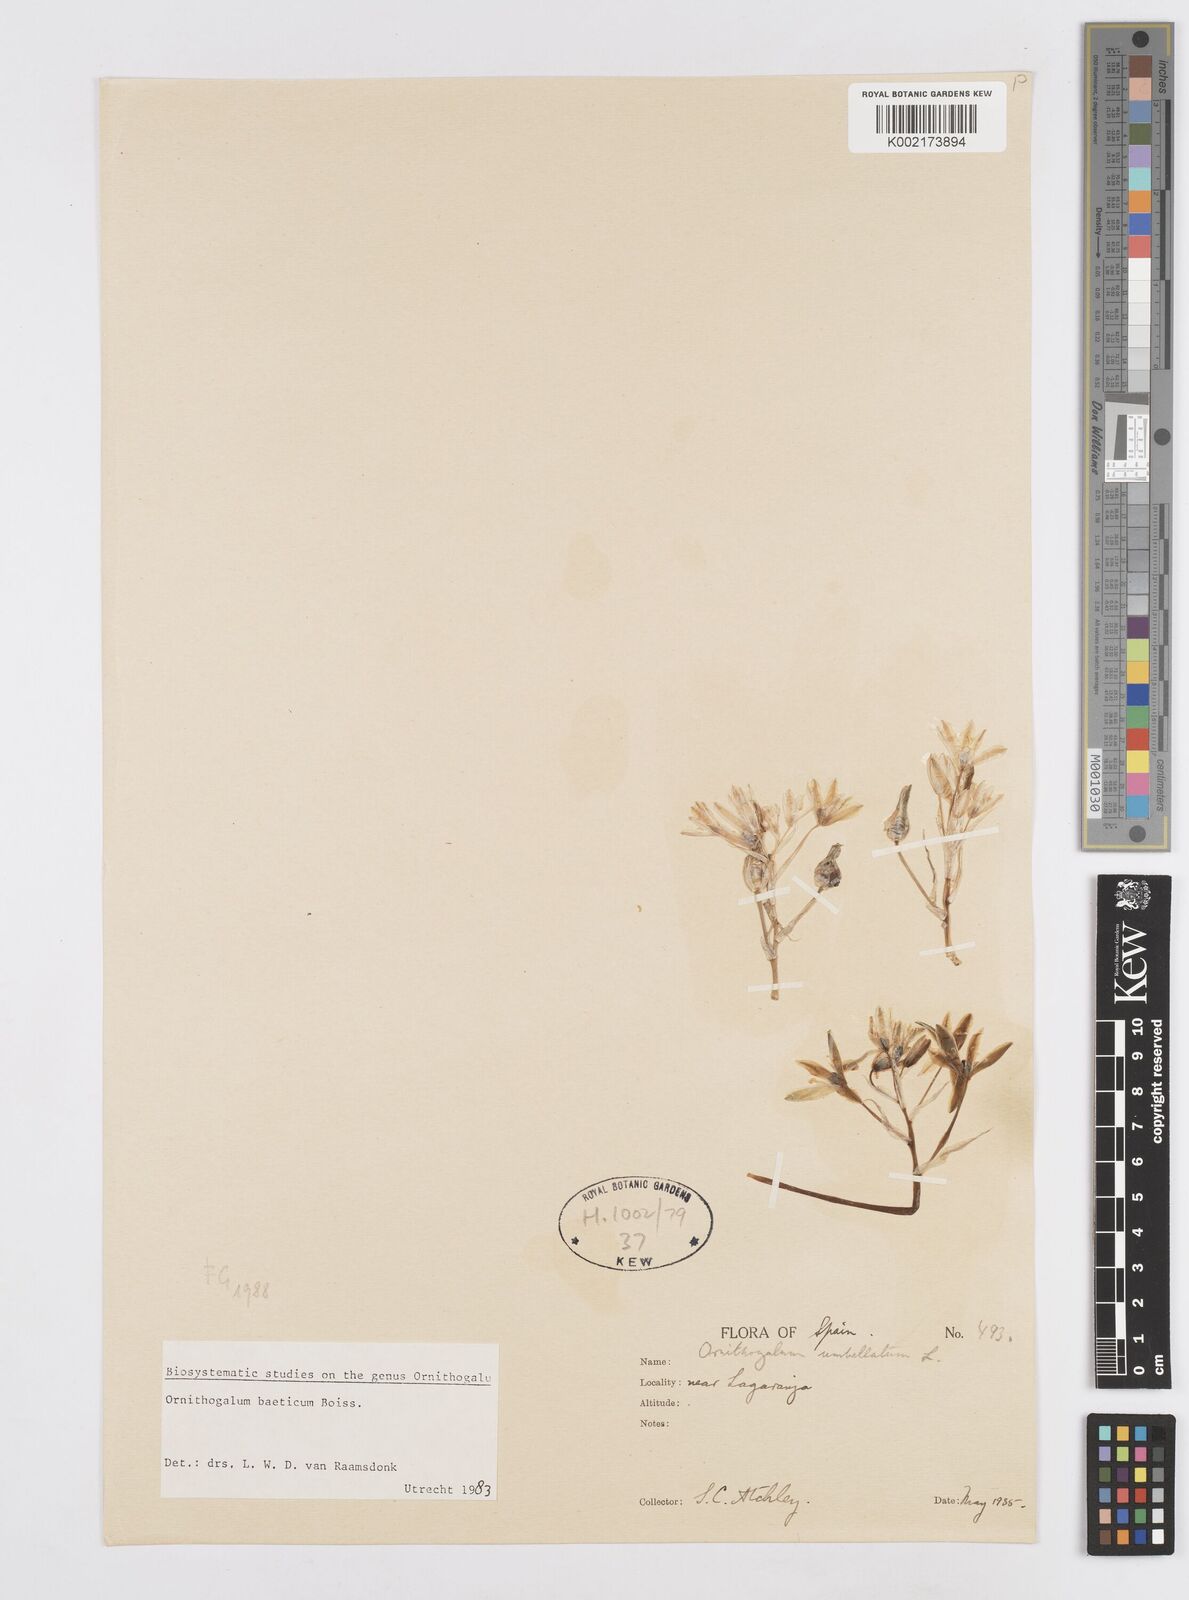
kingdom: Plantae
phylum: Tracheophyta
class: Liliopsida
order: Asparagales
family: Asparagaceae
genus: Ornithogalum
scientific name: Ornithogalum orthophyllum
